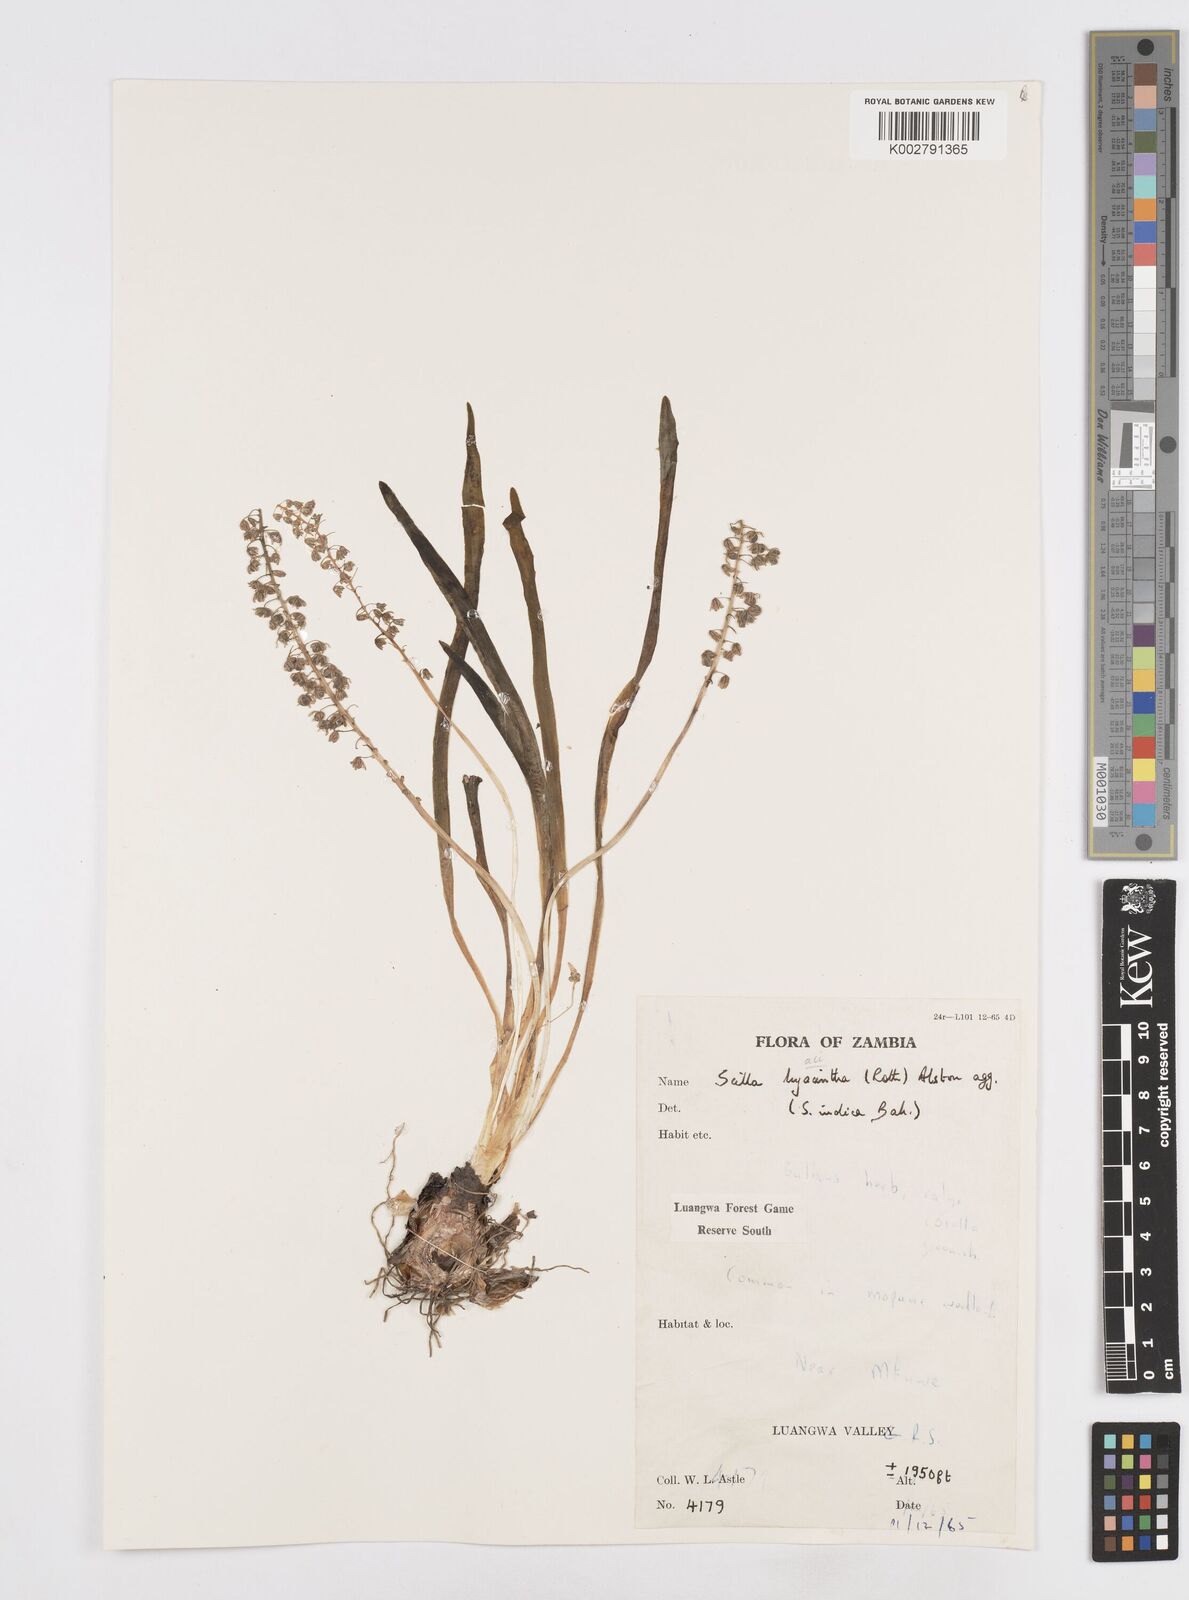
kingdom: Plantae
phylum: Tracheophyta
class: Liliopsida
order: Asparagales
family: Asparagaceae
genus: Ledebouria
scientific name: Ledebouria revoluta
